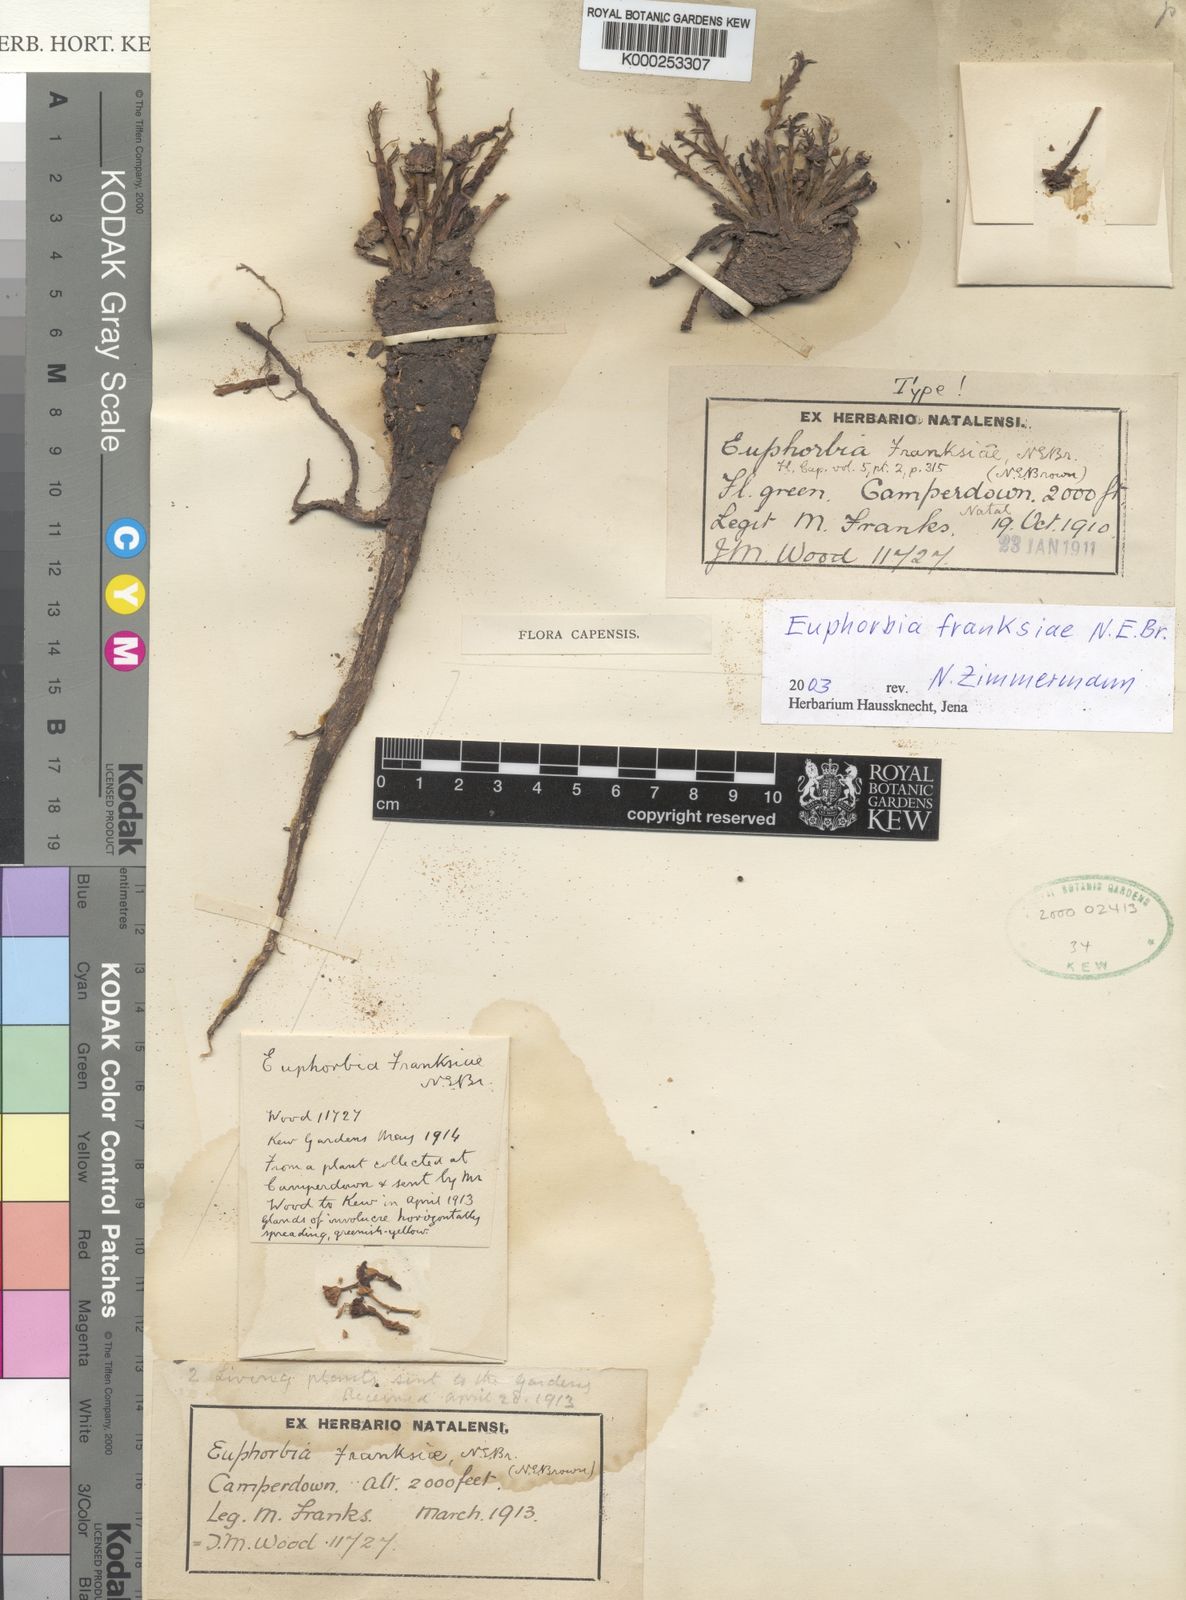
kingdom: Plantae
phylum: Tracheophyta
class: Magnoliopsida
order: Malpighiales
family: Euphorbiaceae
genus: Euphorbia
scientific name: Euphorbia flanaganii
